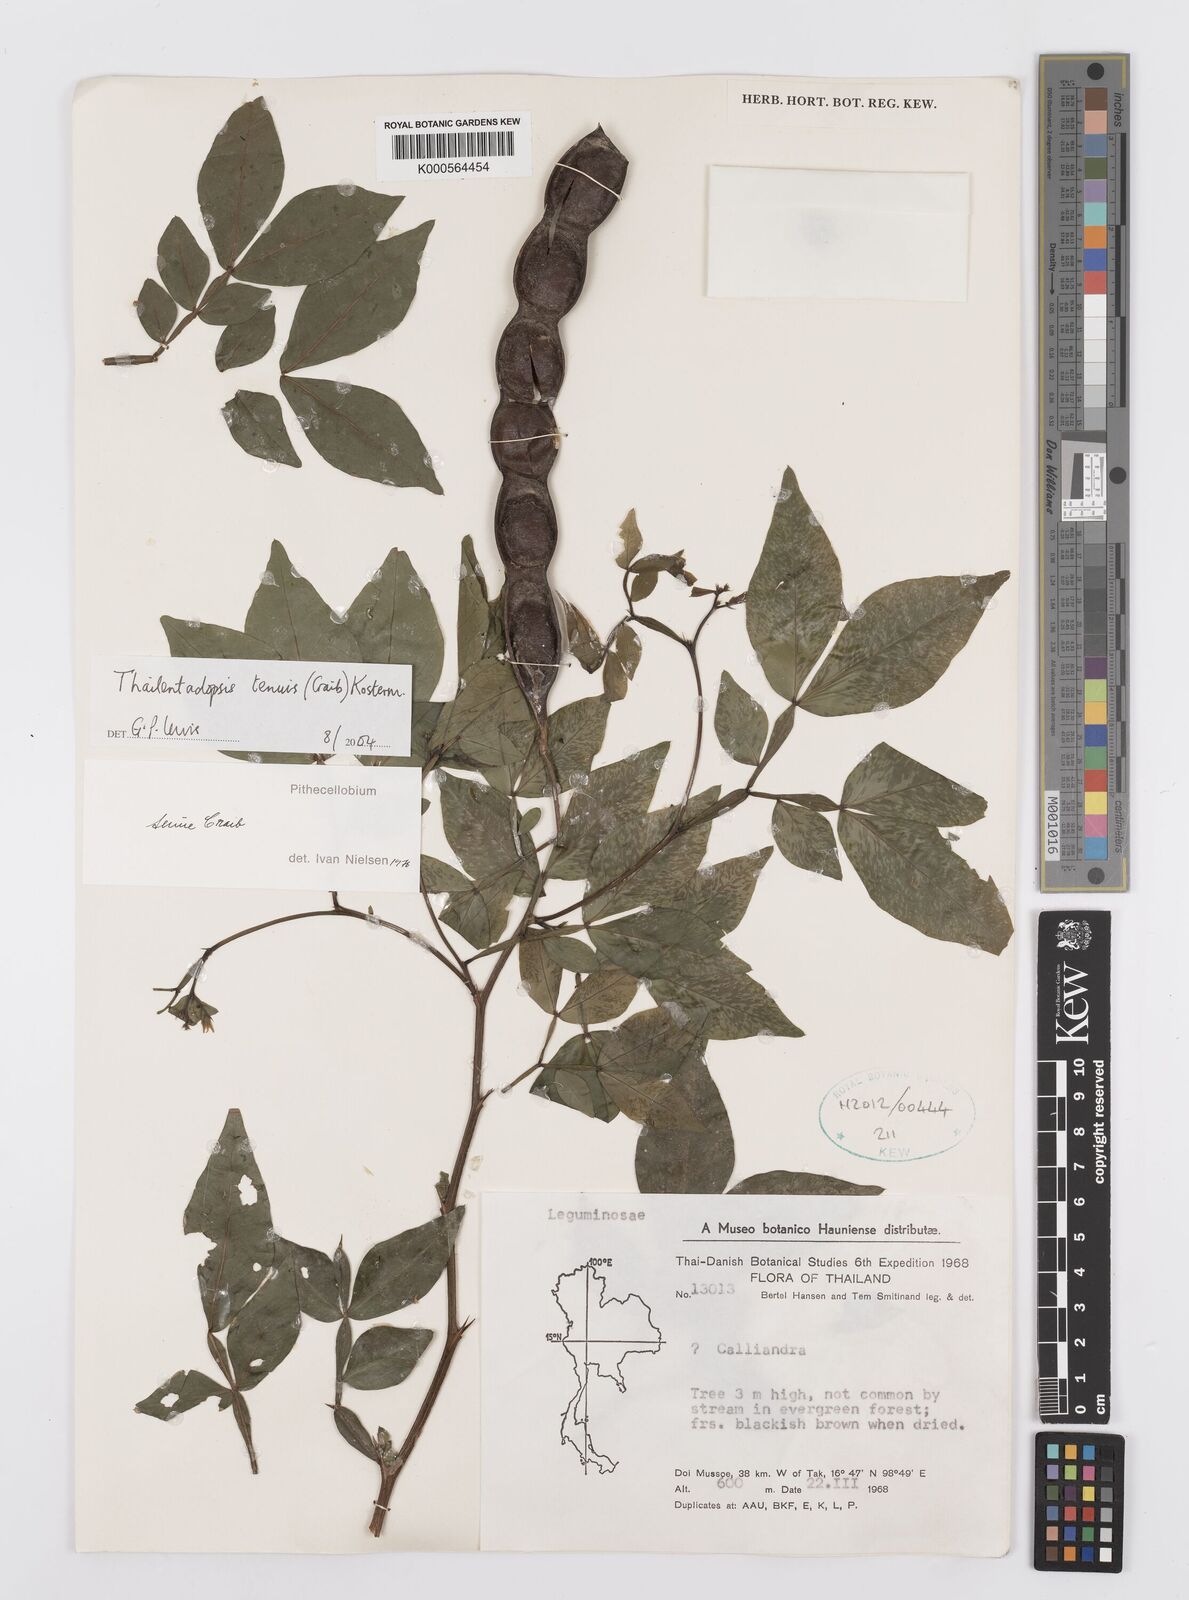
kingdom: Plantae
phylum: Tracheophyta
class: Magnoliopsida
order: Fabales
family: Fabaceae
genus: Thailentadopsis
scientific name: Thailentadopsis tenuis
